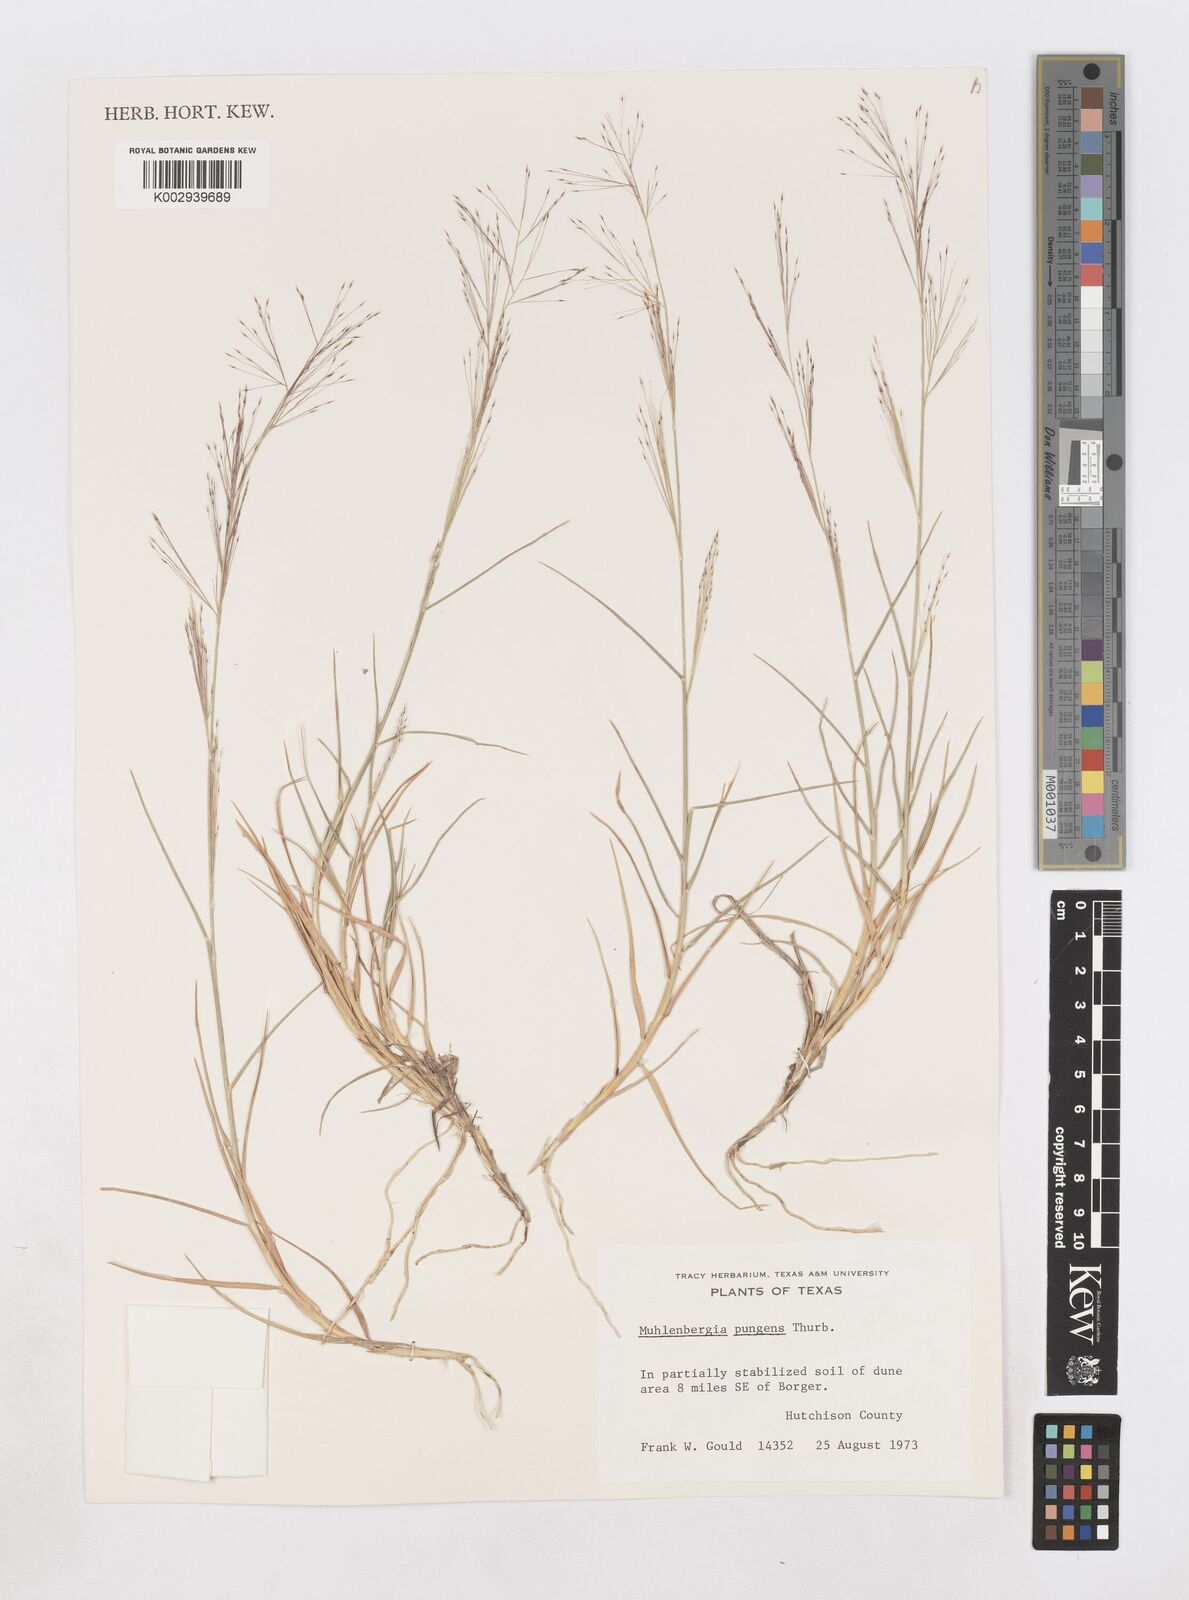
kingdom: Plantae
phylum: Tracheophyta
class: Liliopsida
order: Poales
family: Poaceae
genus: Muhlenbergia
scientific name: Muhlenbergia pungens
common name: Sandhill muhly
